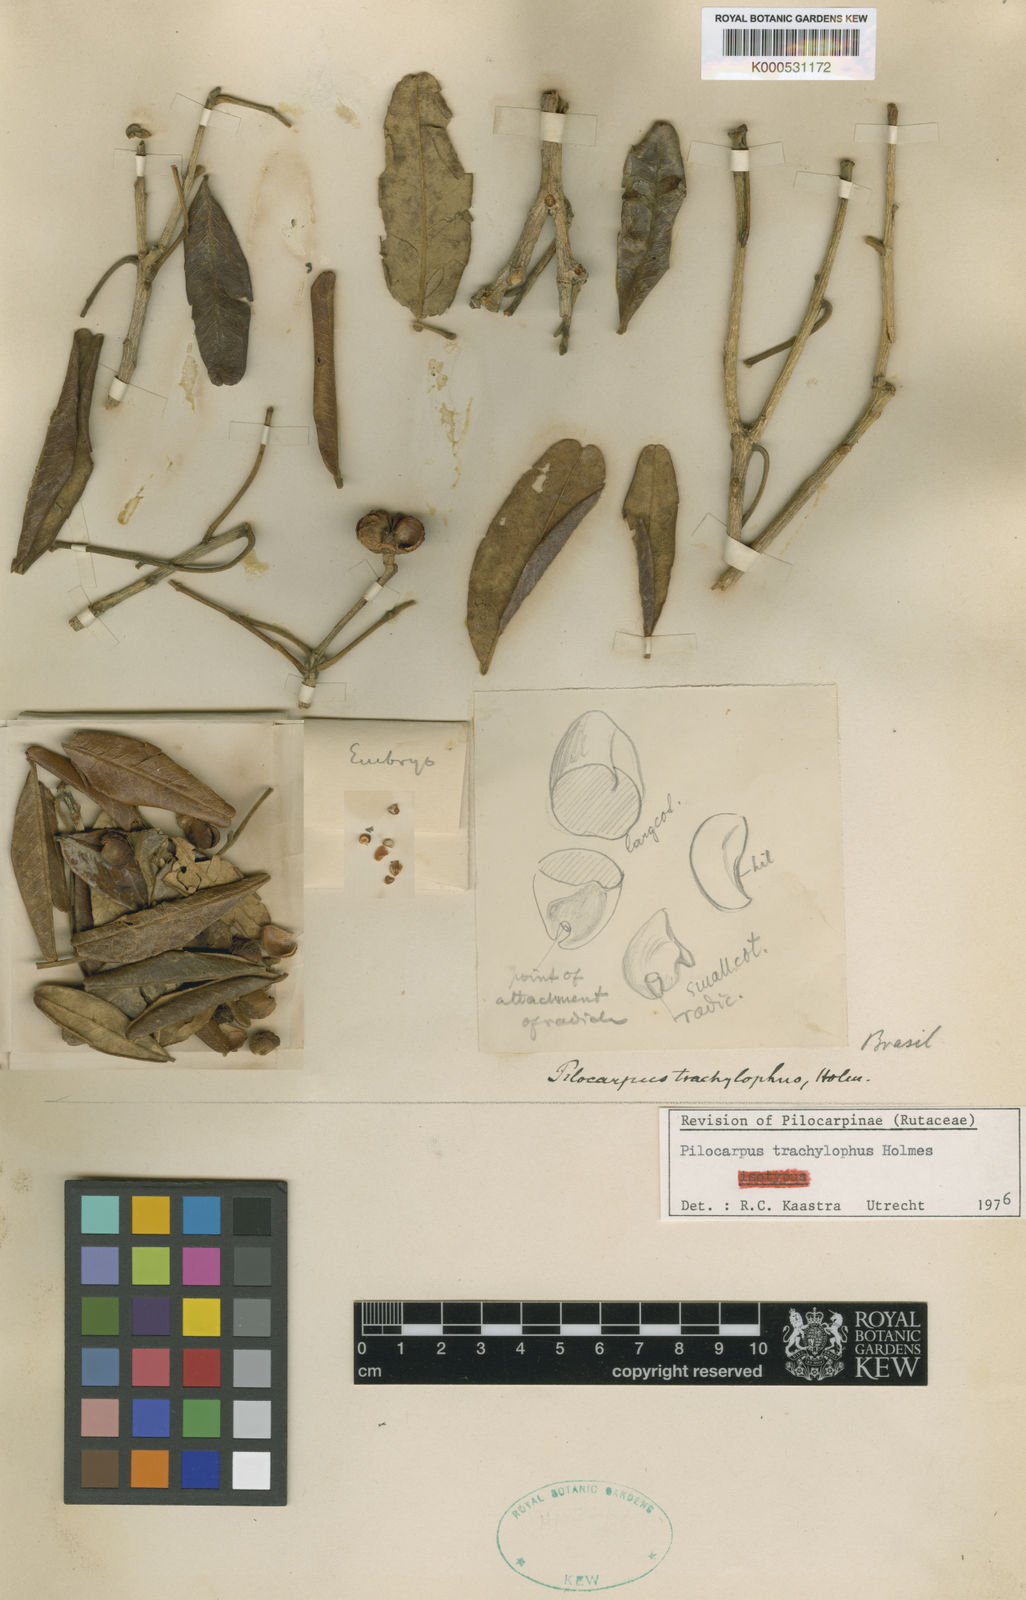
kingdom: Plantae
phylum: Tracheophyta
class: Magnoliopsida
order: Sapindales
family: Rutaceae
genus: Pilocarpus
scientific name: Pilocarpus trachylophus
